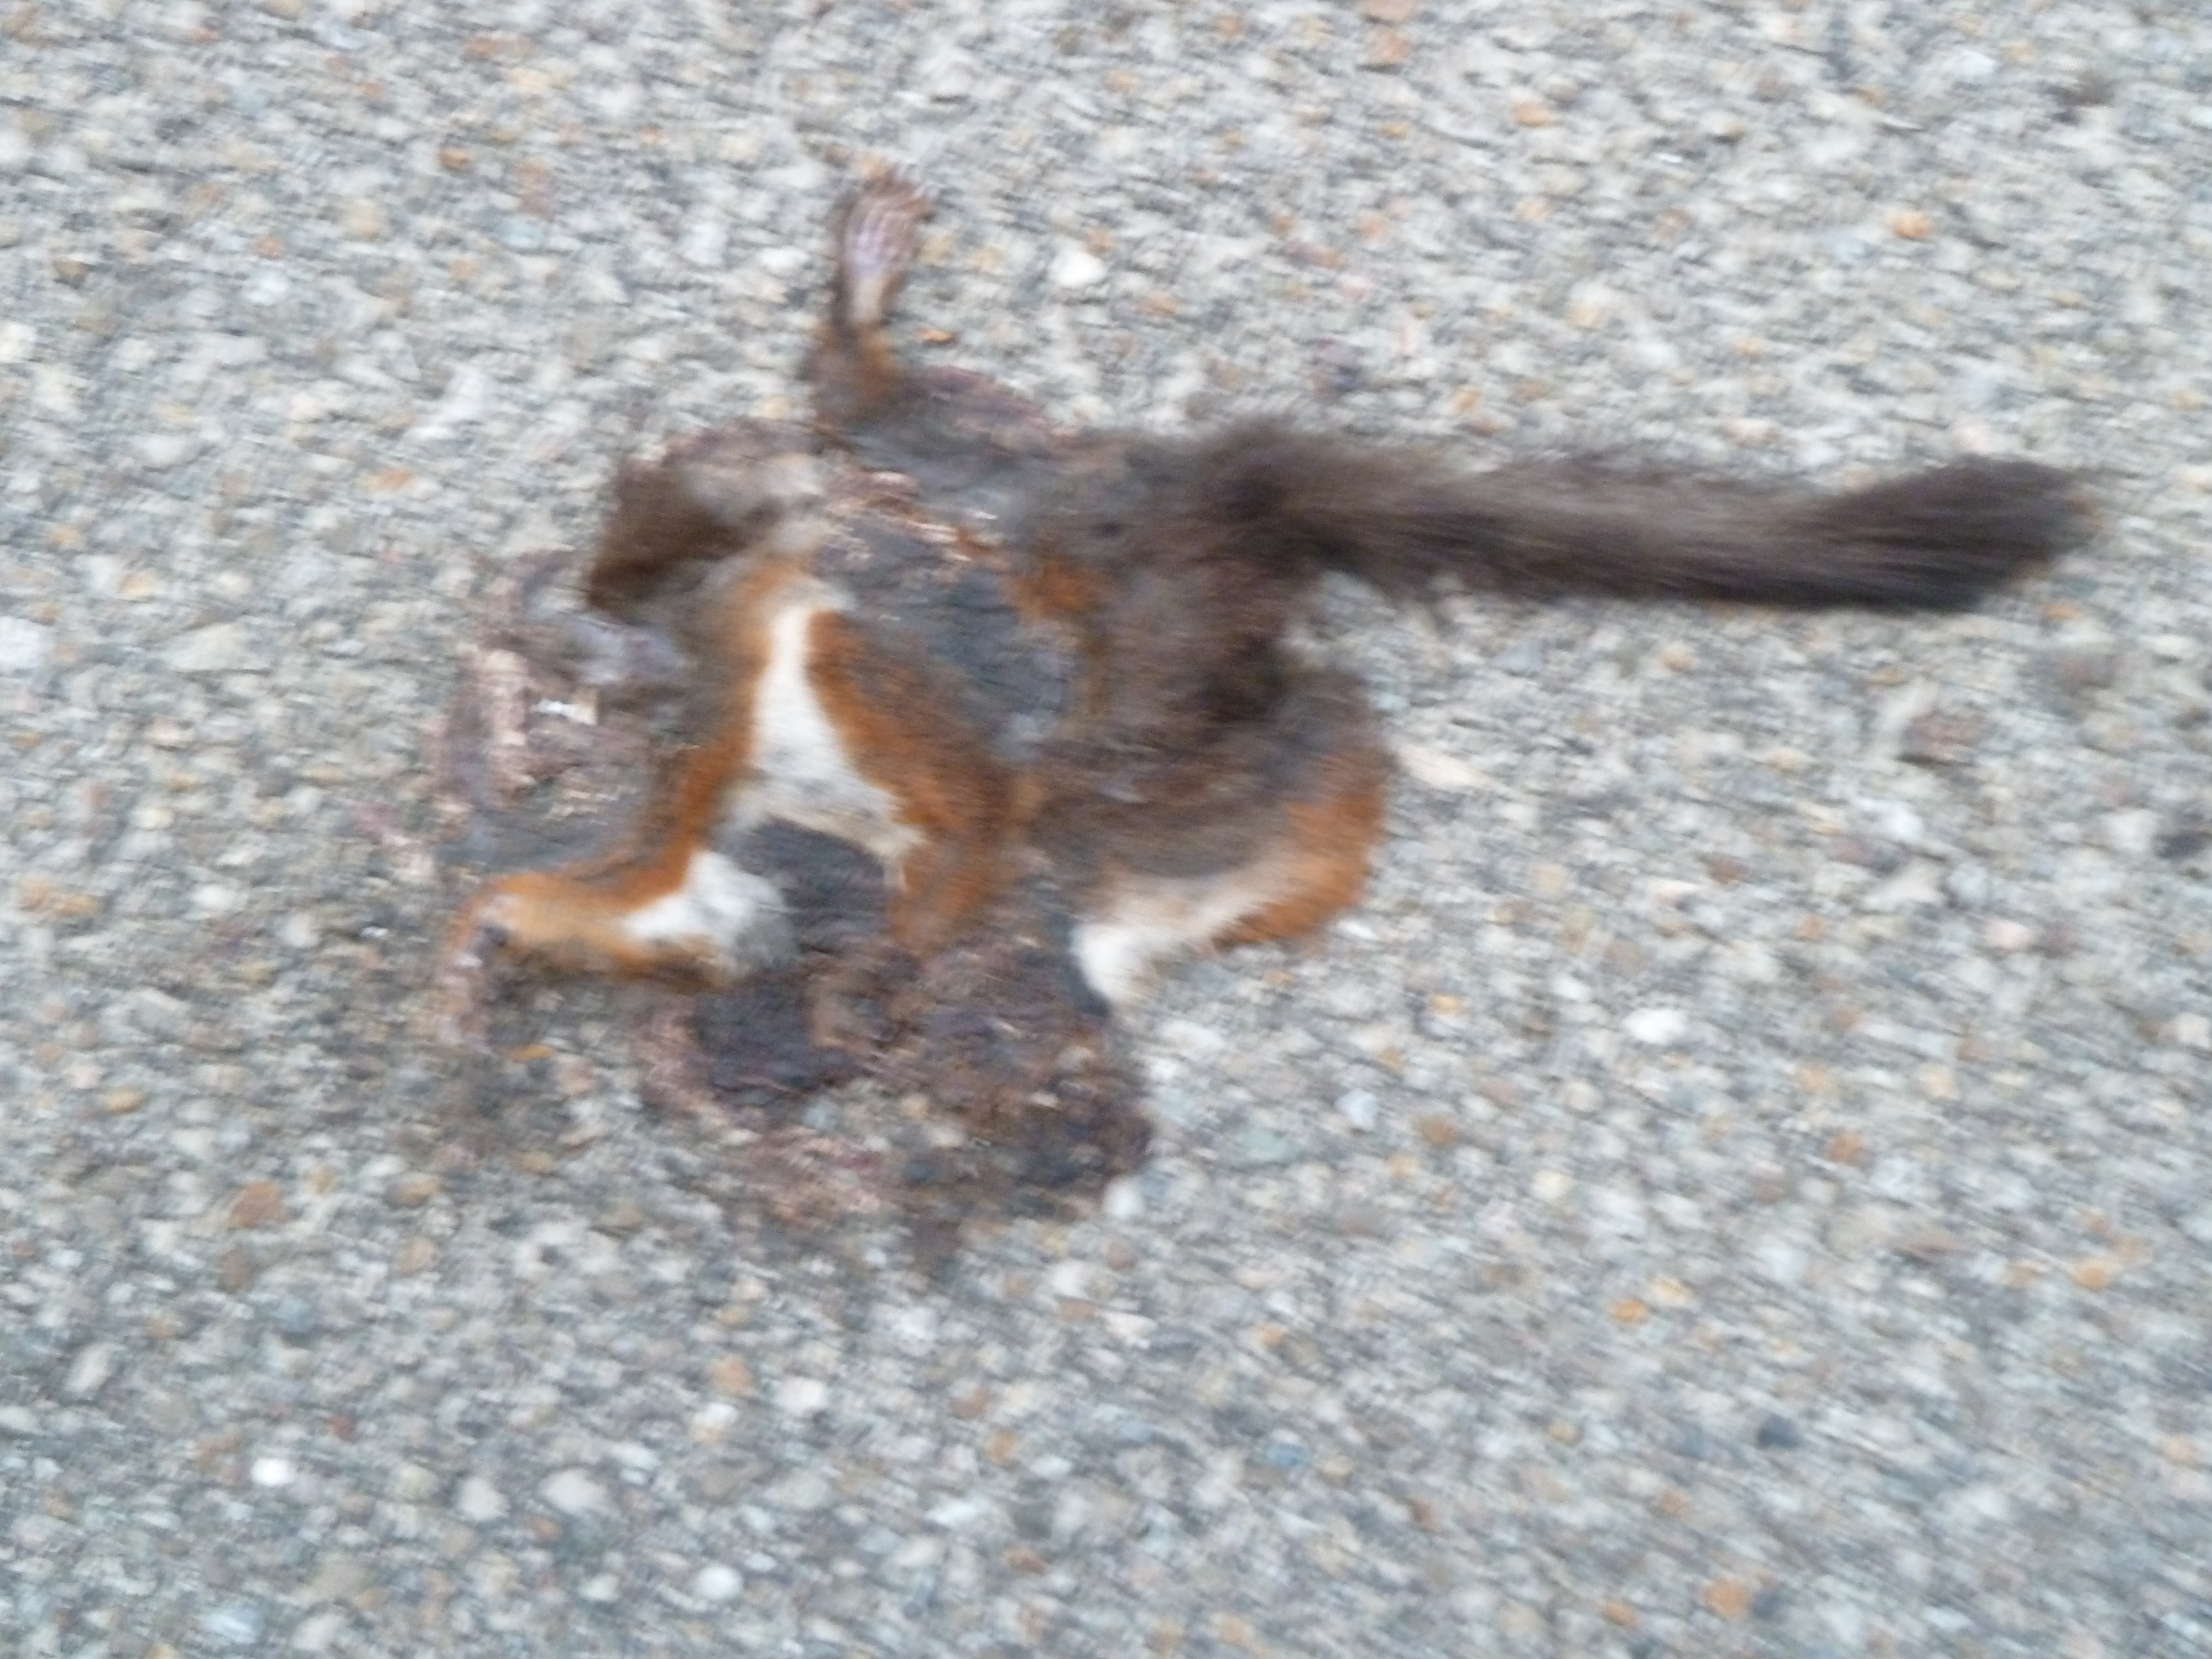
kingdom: Animalia
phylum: Chordata
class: Mammalia
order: Rodentia
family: Sciuridae
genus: Sciurus
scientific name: Sciurus vulgaris
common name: Eurasian red squirrel
